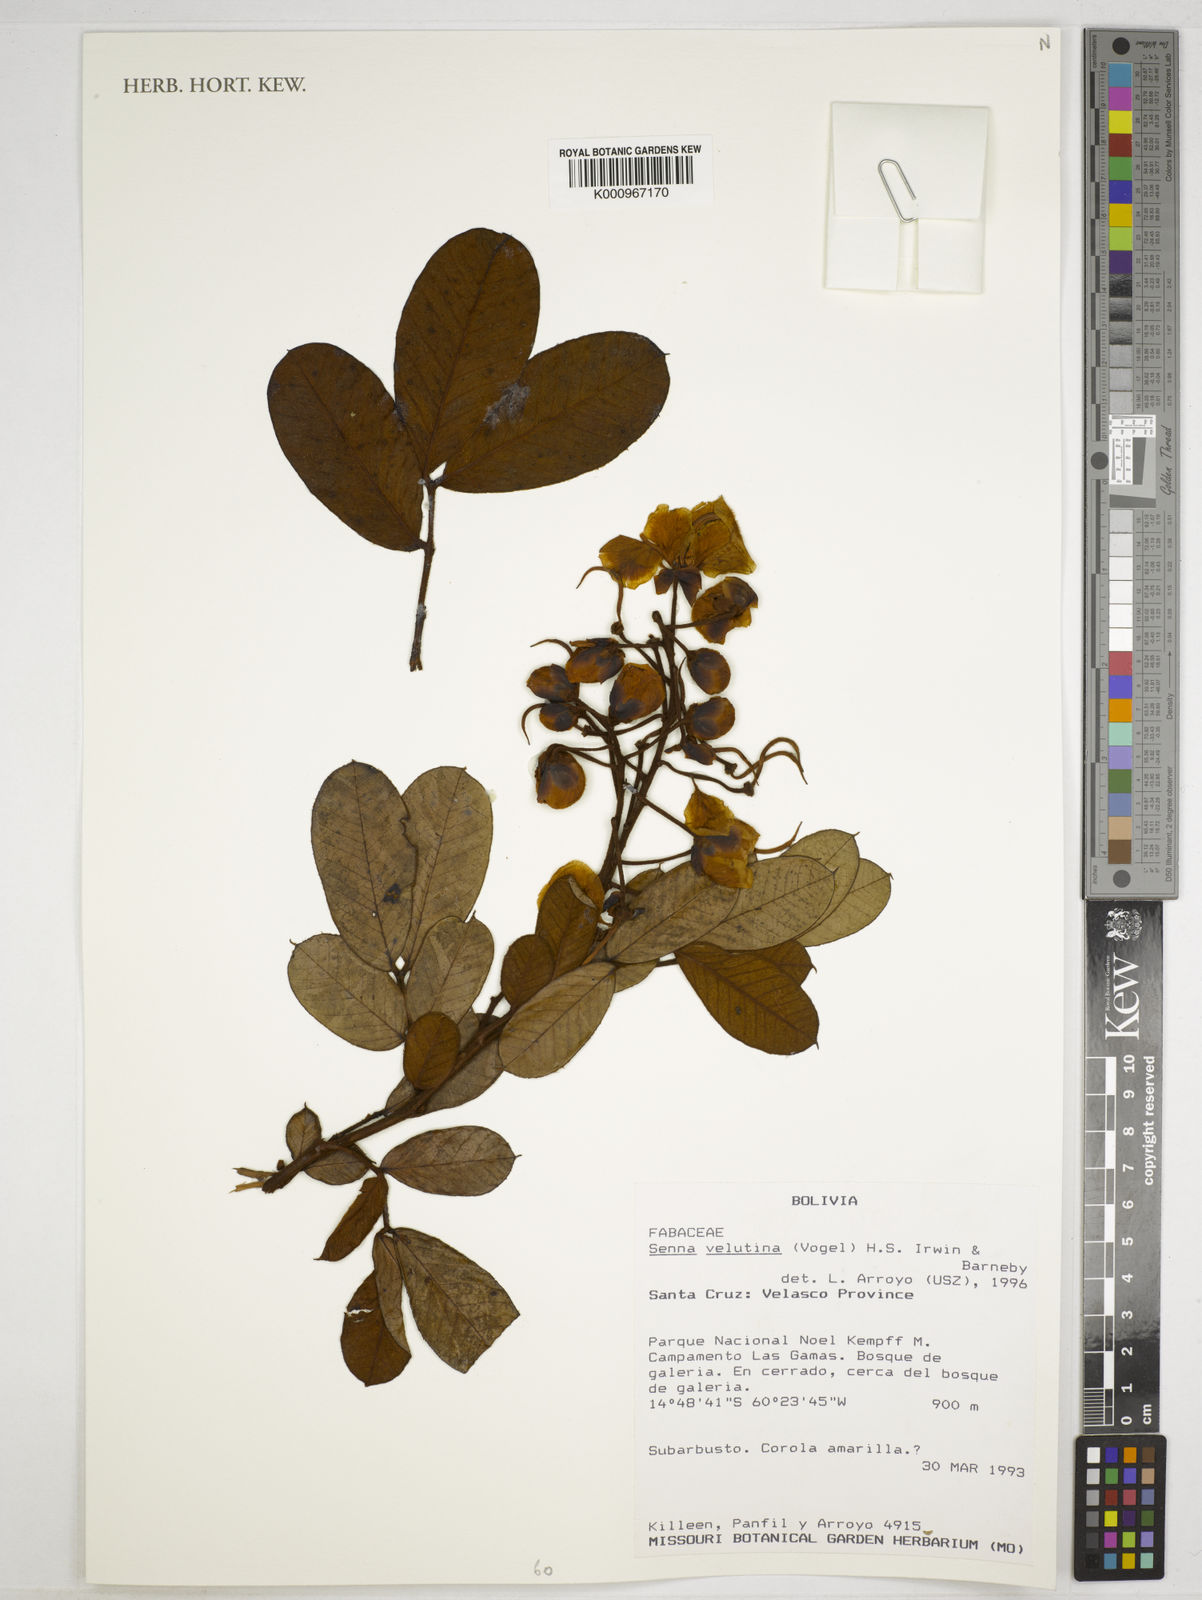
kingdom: Plantae
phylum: Tracheophyta
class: Magnoliopsida
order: Fabales
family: Fabaceae
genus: Senna
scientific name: Senna velutina
